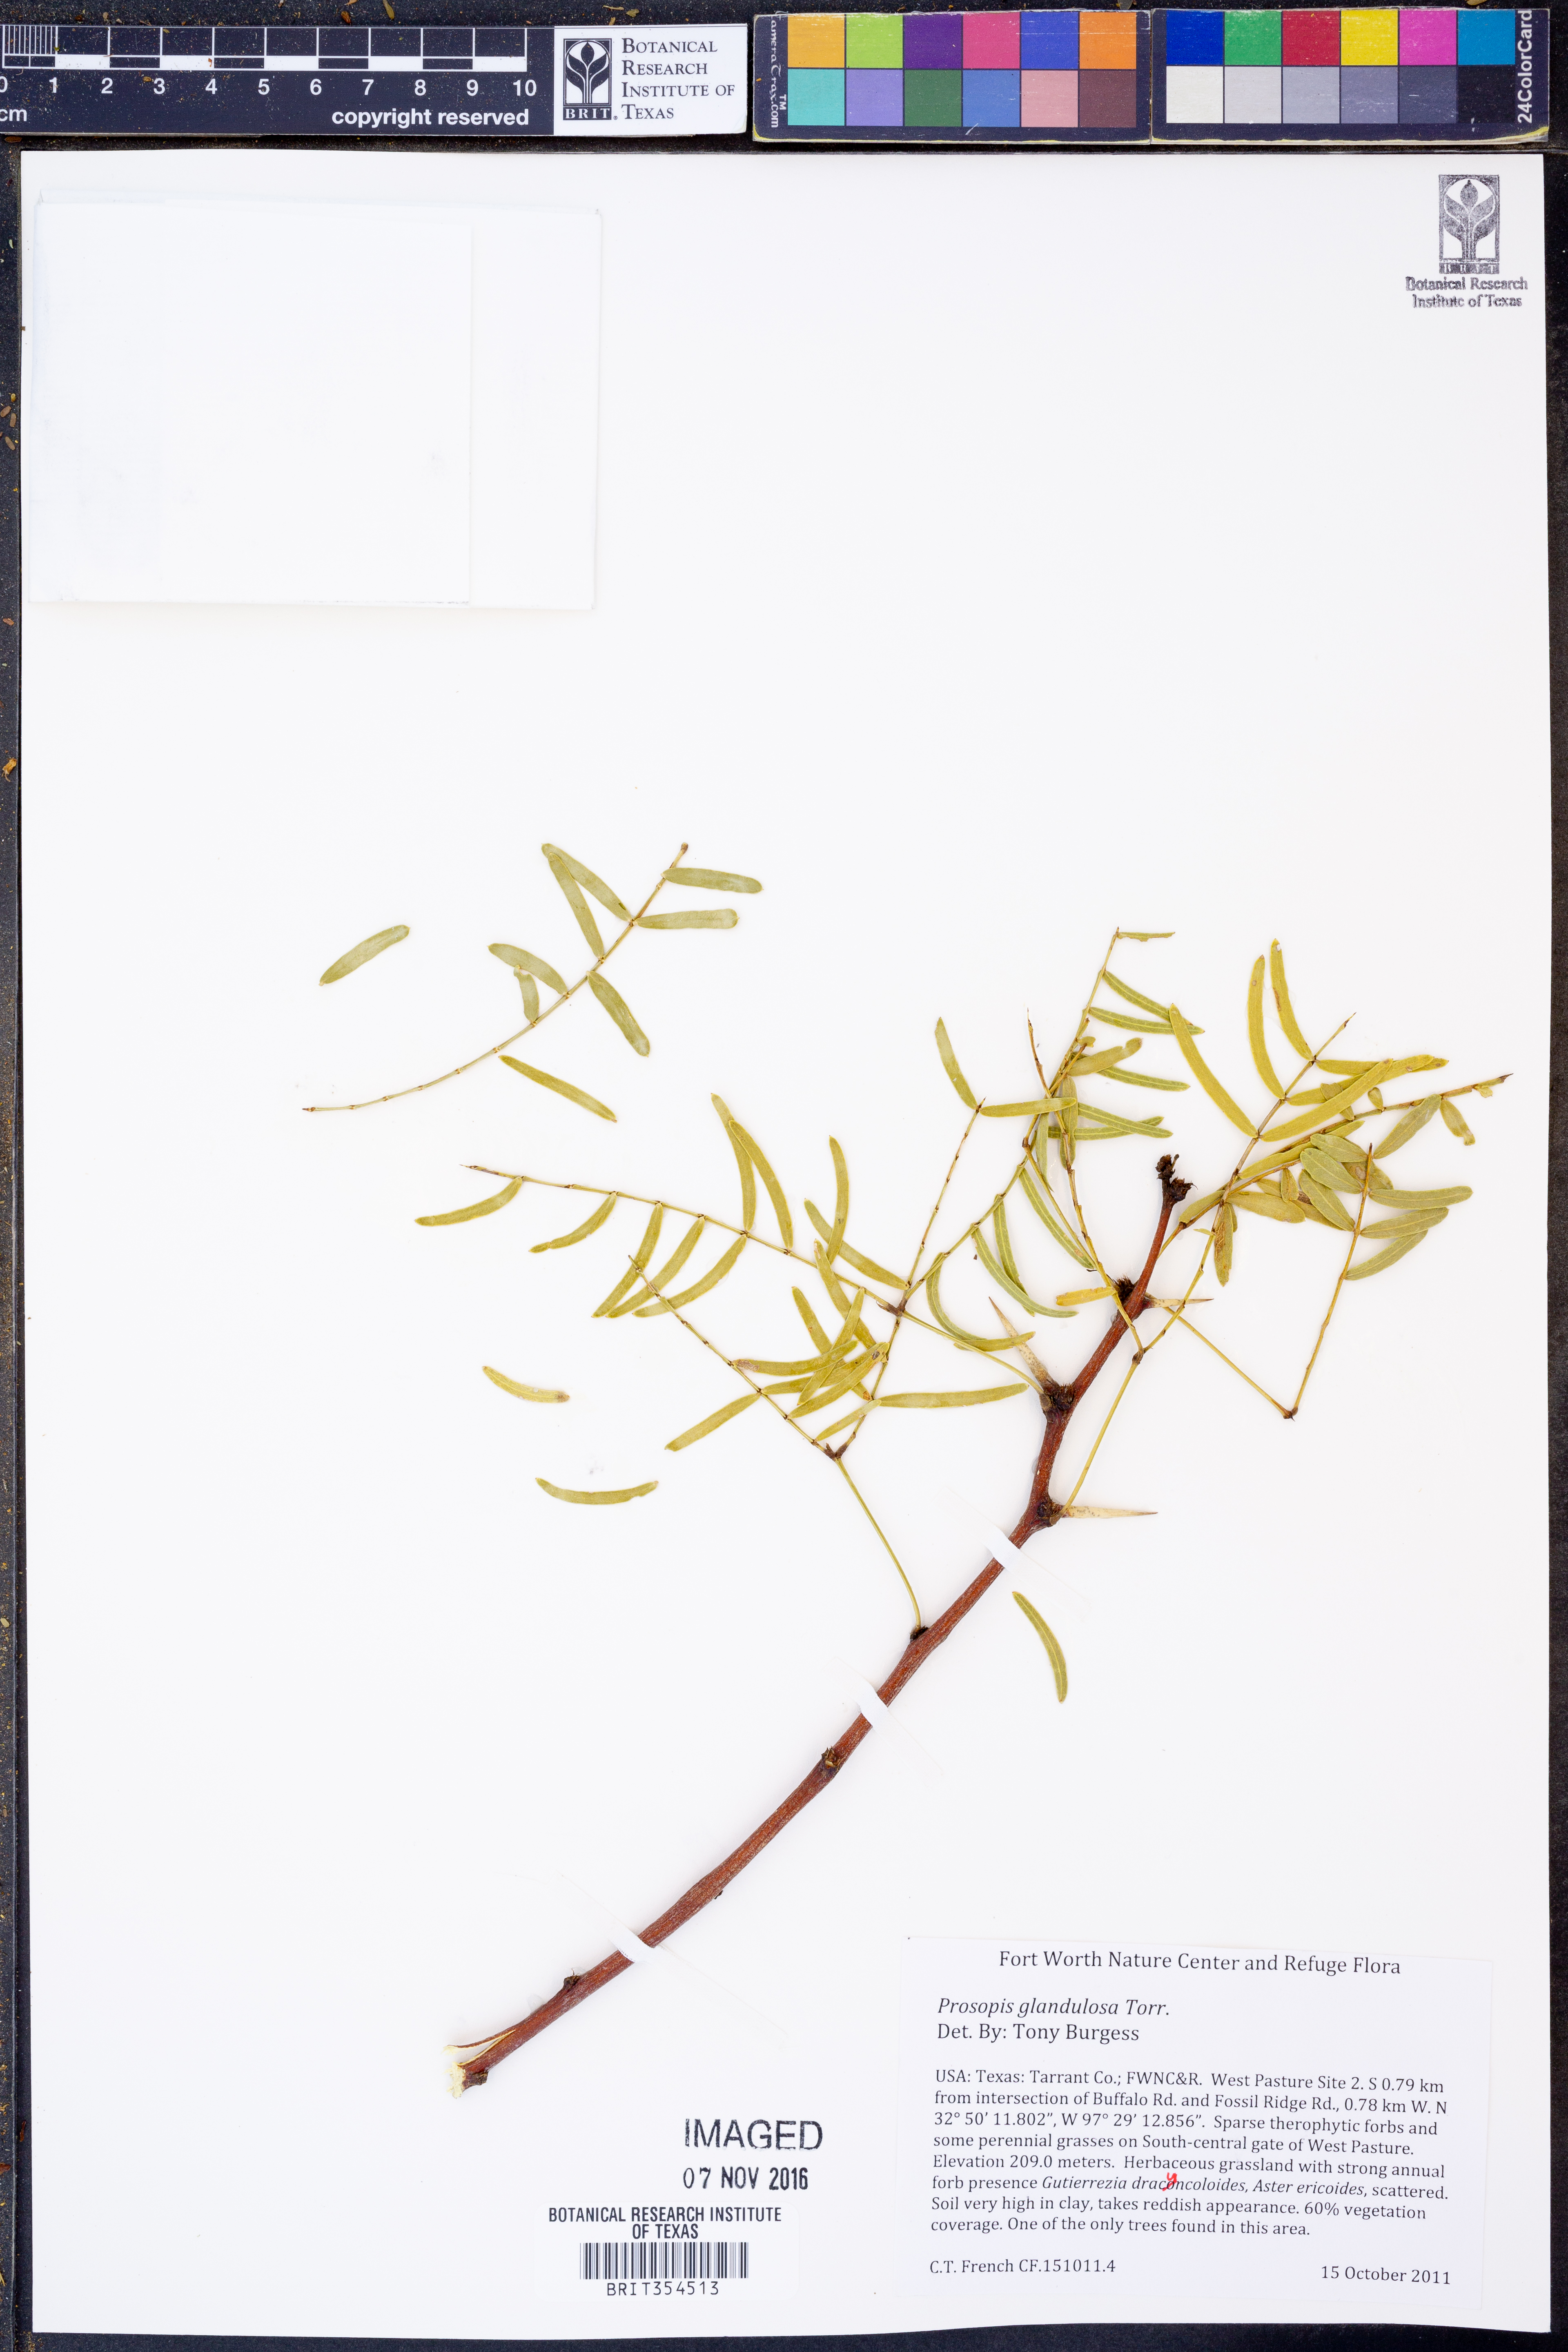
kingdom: Plantae
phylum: Tracheophyta
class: Magnoliopsida
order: Fabales
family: Fabaceae
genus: Prosopis
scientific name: Prosopis glandulosa
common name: Honey mesquite
